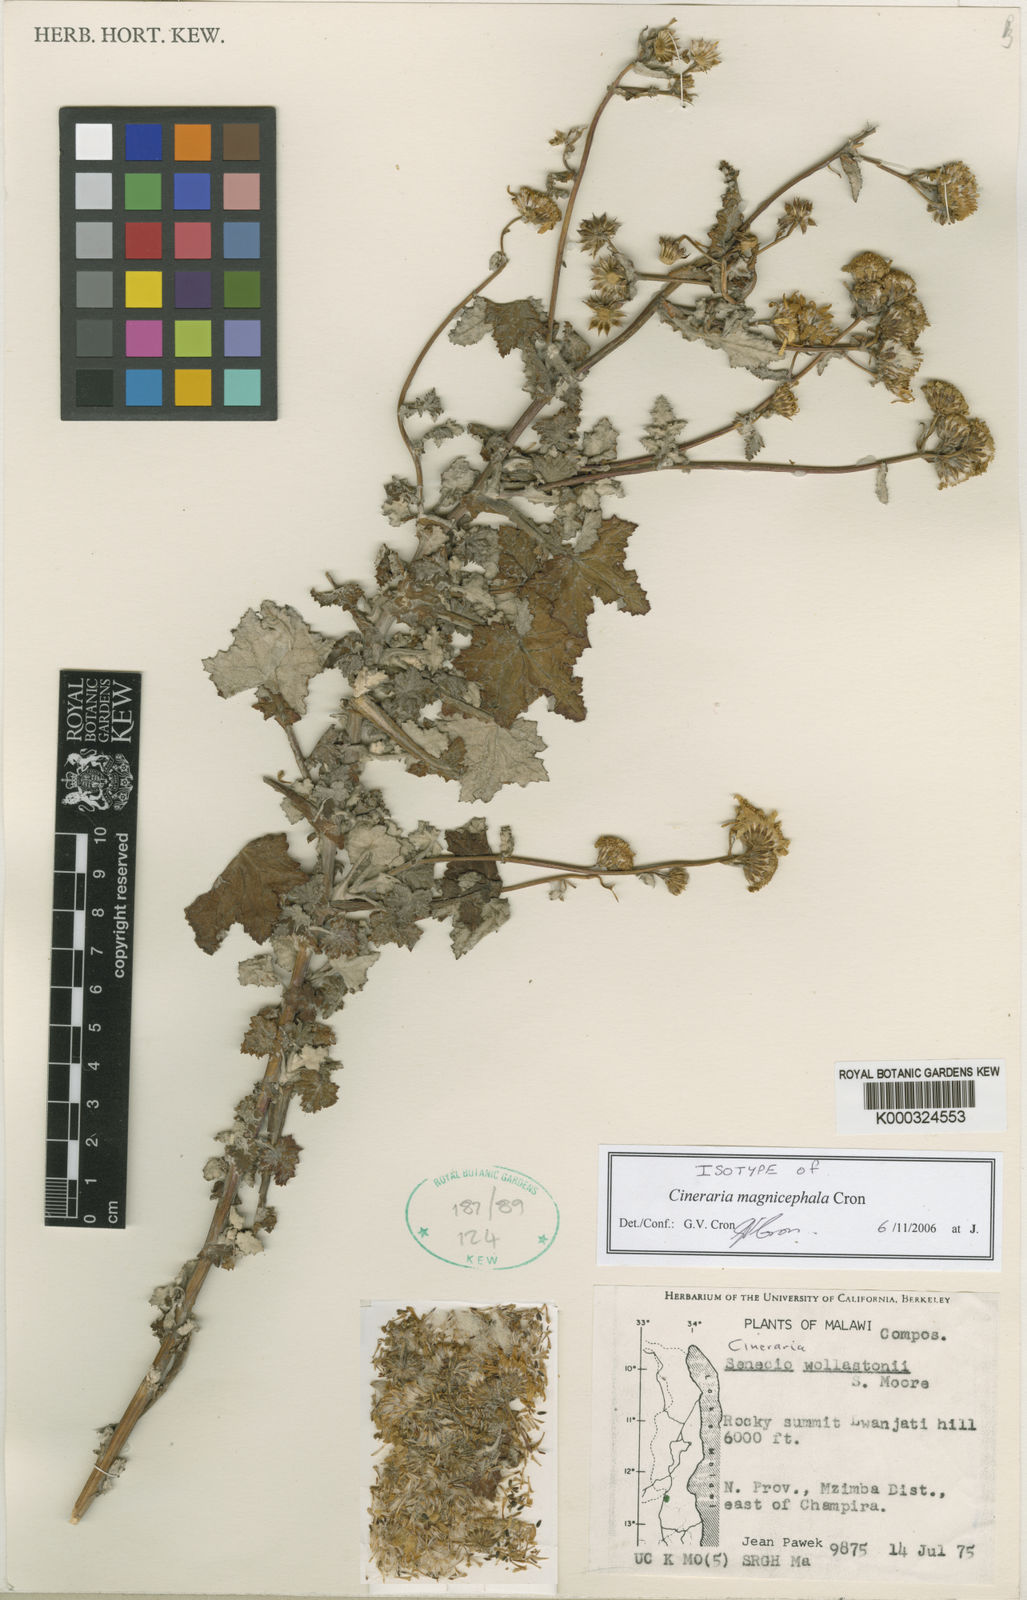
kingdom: Plantae
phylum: Tracheophyta
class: Magnoliopsida
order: Asterales
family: Asteraceae
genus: Cineraria
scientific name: Cineraria magnicephala
